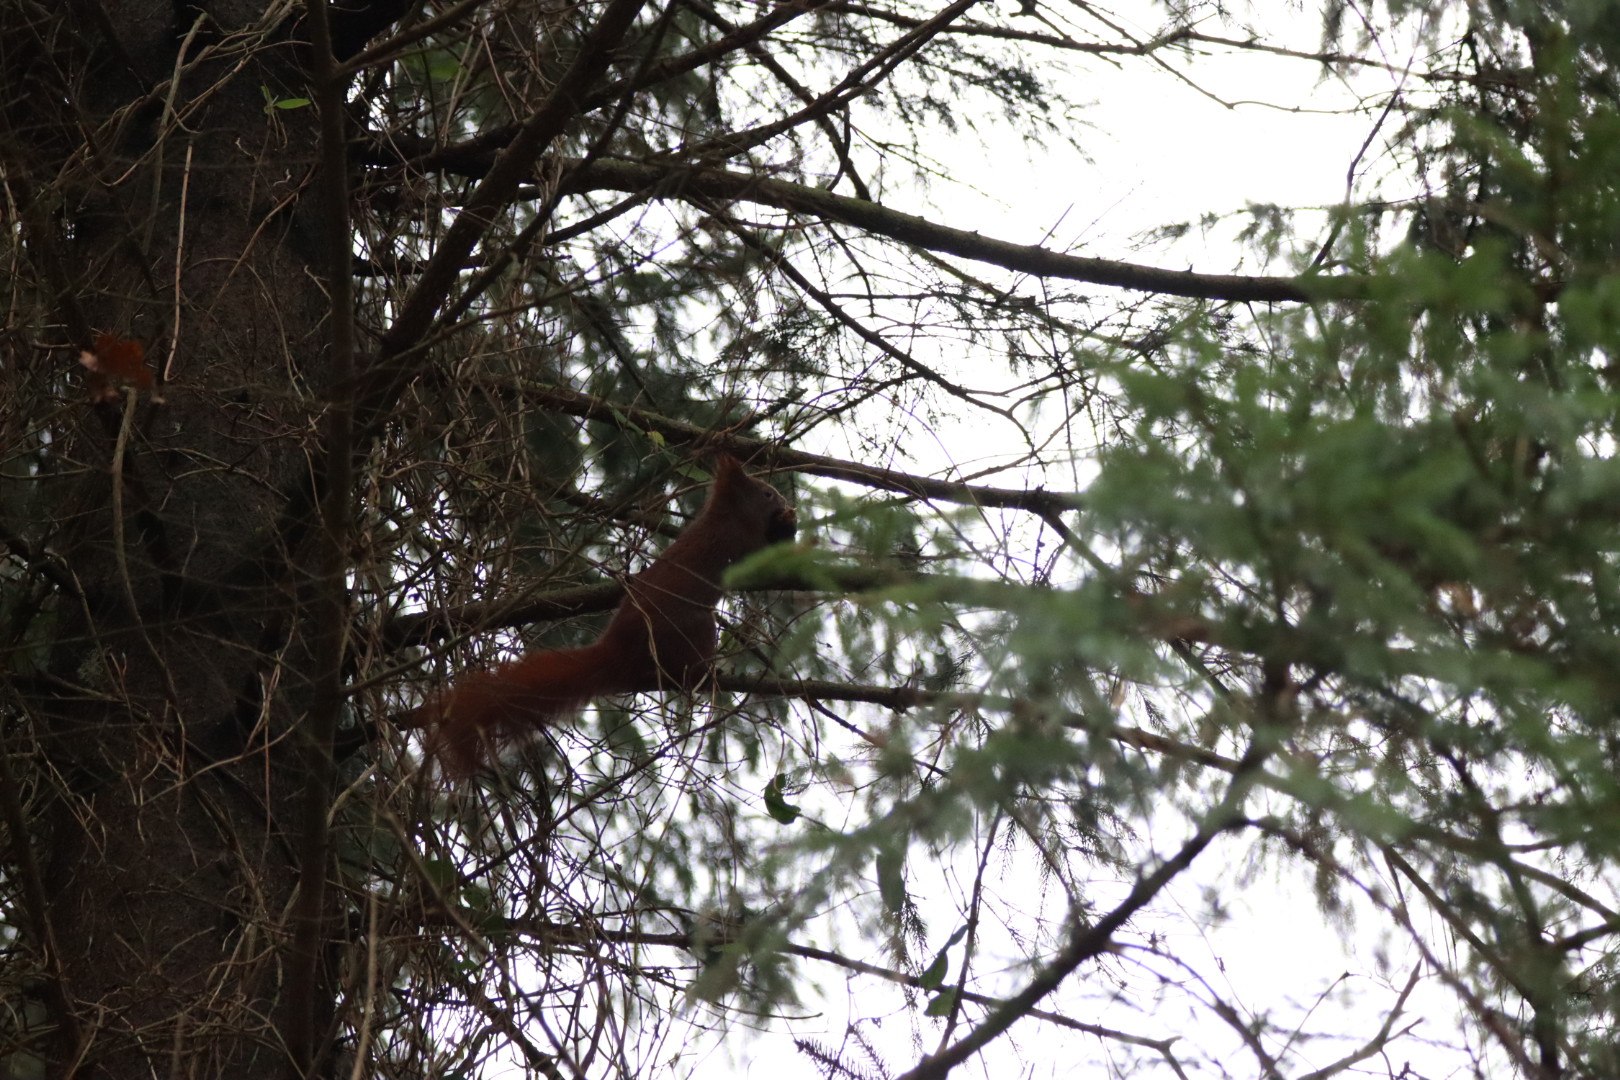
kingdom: Animalia
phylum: Chordata
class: Mammalia
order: Rodentia
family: Sciuridae
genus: Sciurus
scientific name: Sciurus vulgaris
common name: Egern
